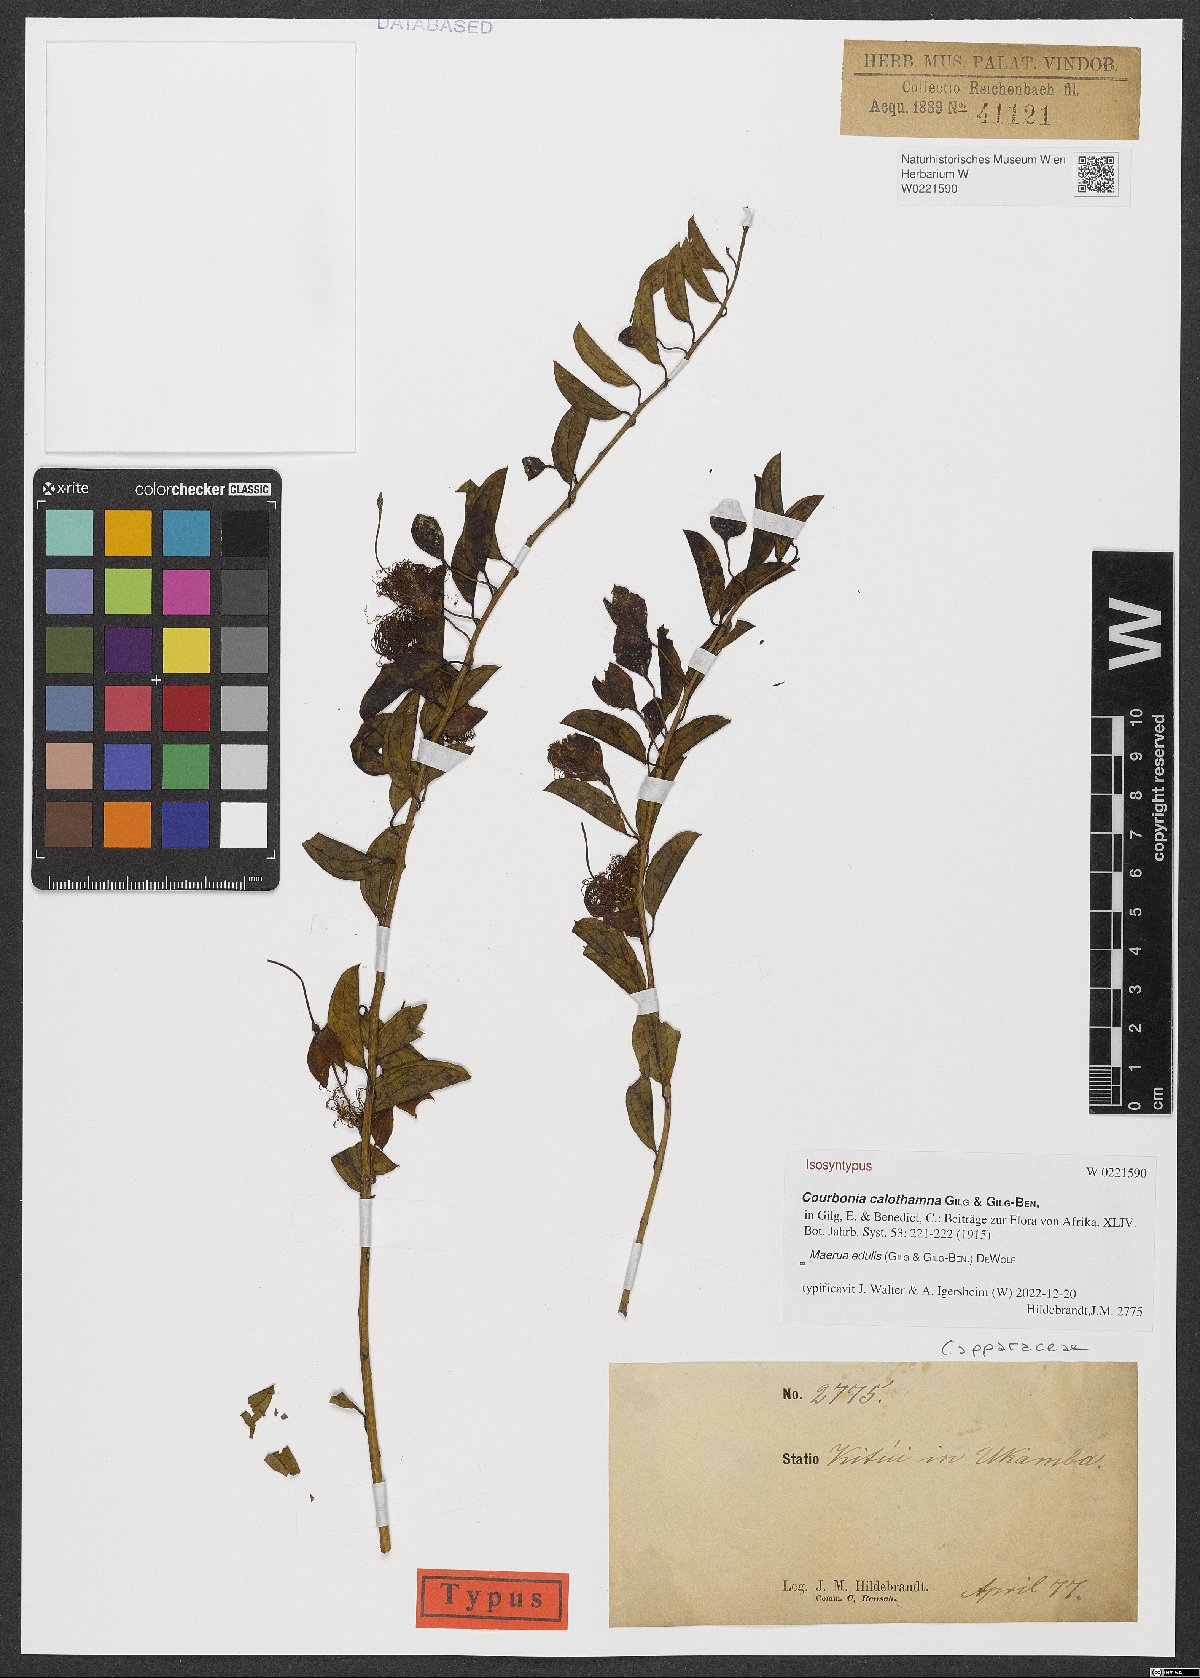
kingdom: Plantae
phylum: Tracheophyta
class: Magnoliopsida
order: Brassicales
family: Capparaceae
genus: Maerua
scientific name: Maerua edulis
